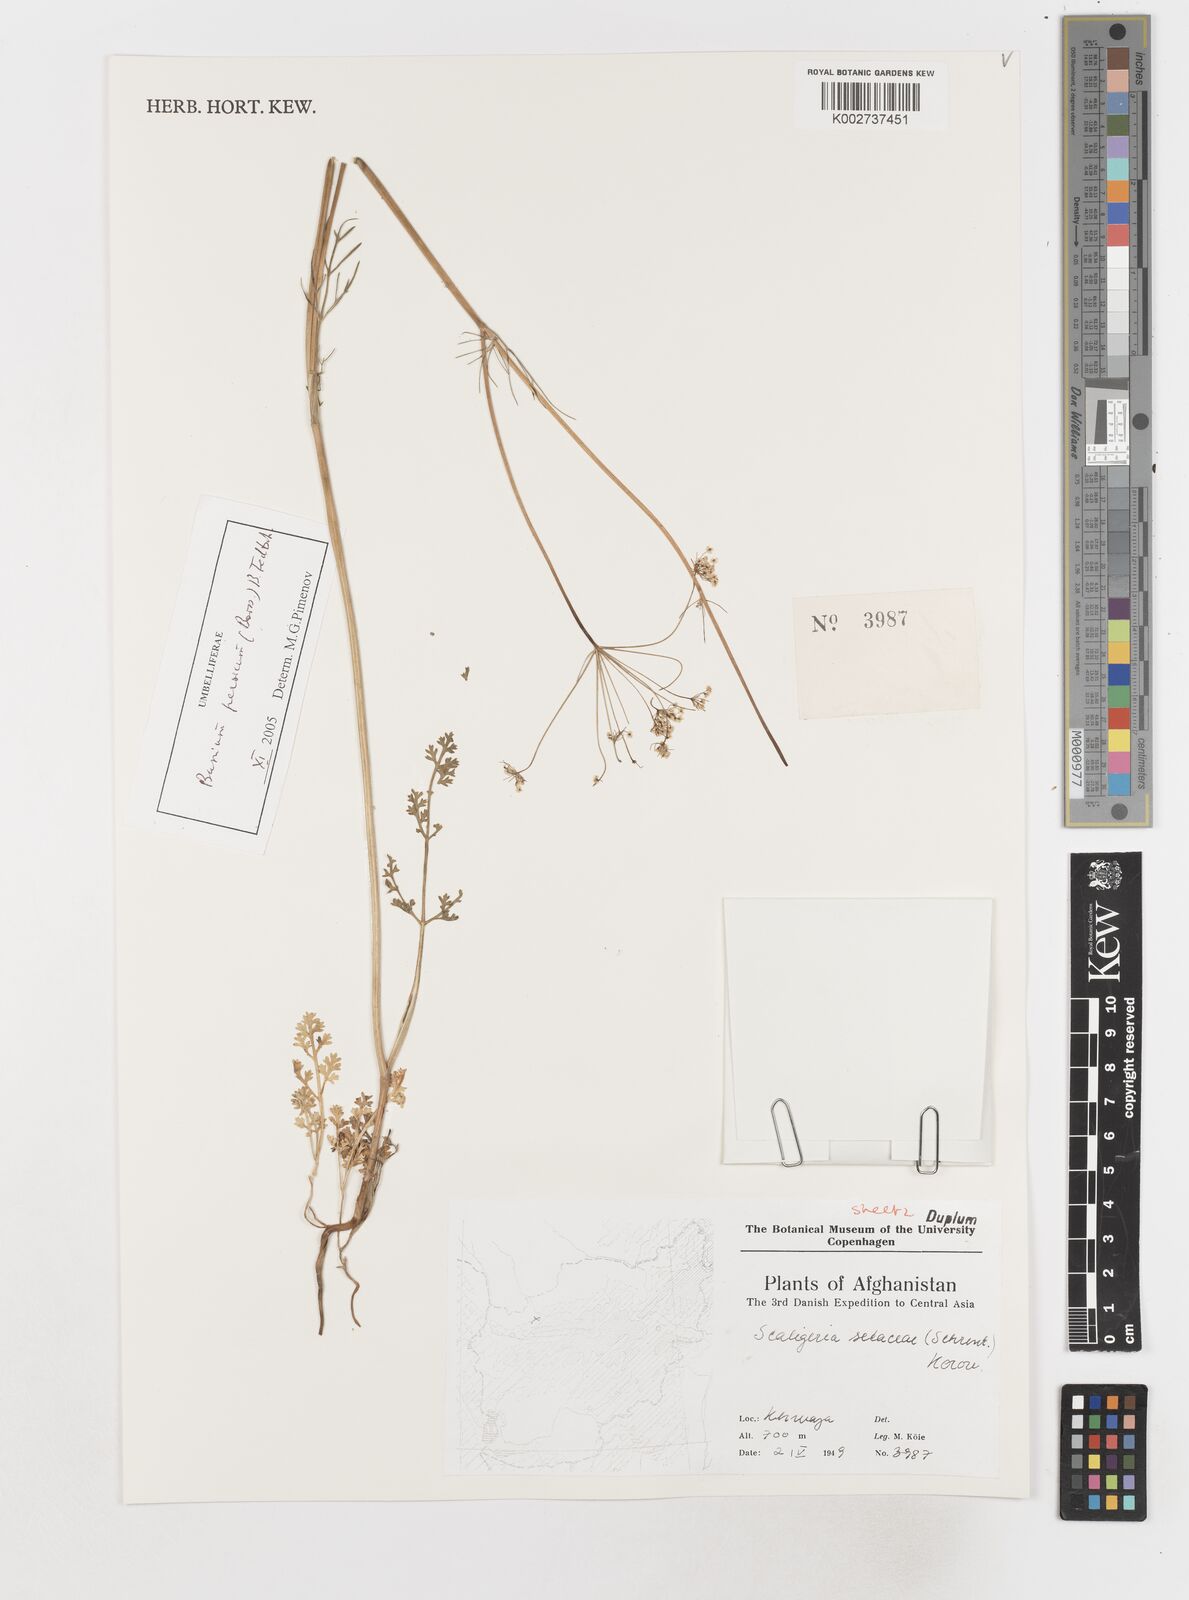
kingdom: Plantae
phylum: Tracheophyta
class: Magnoliopsida
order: Apiales
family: Apiaceae
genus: Elwendia
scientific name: Elwendia setacea
